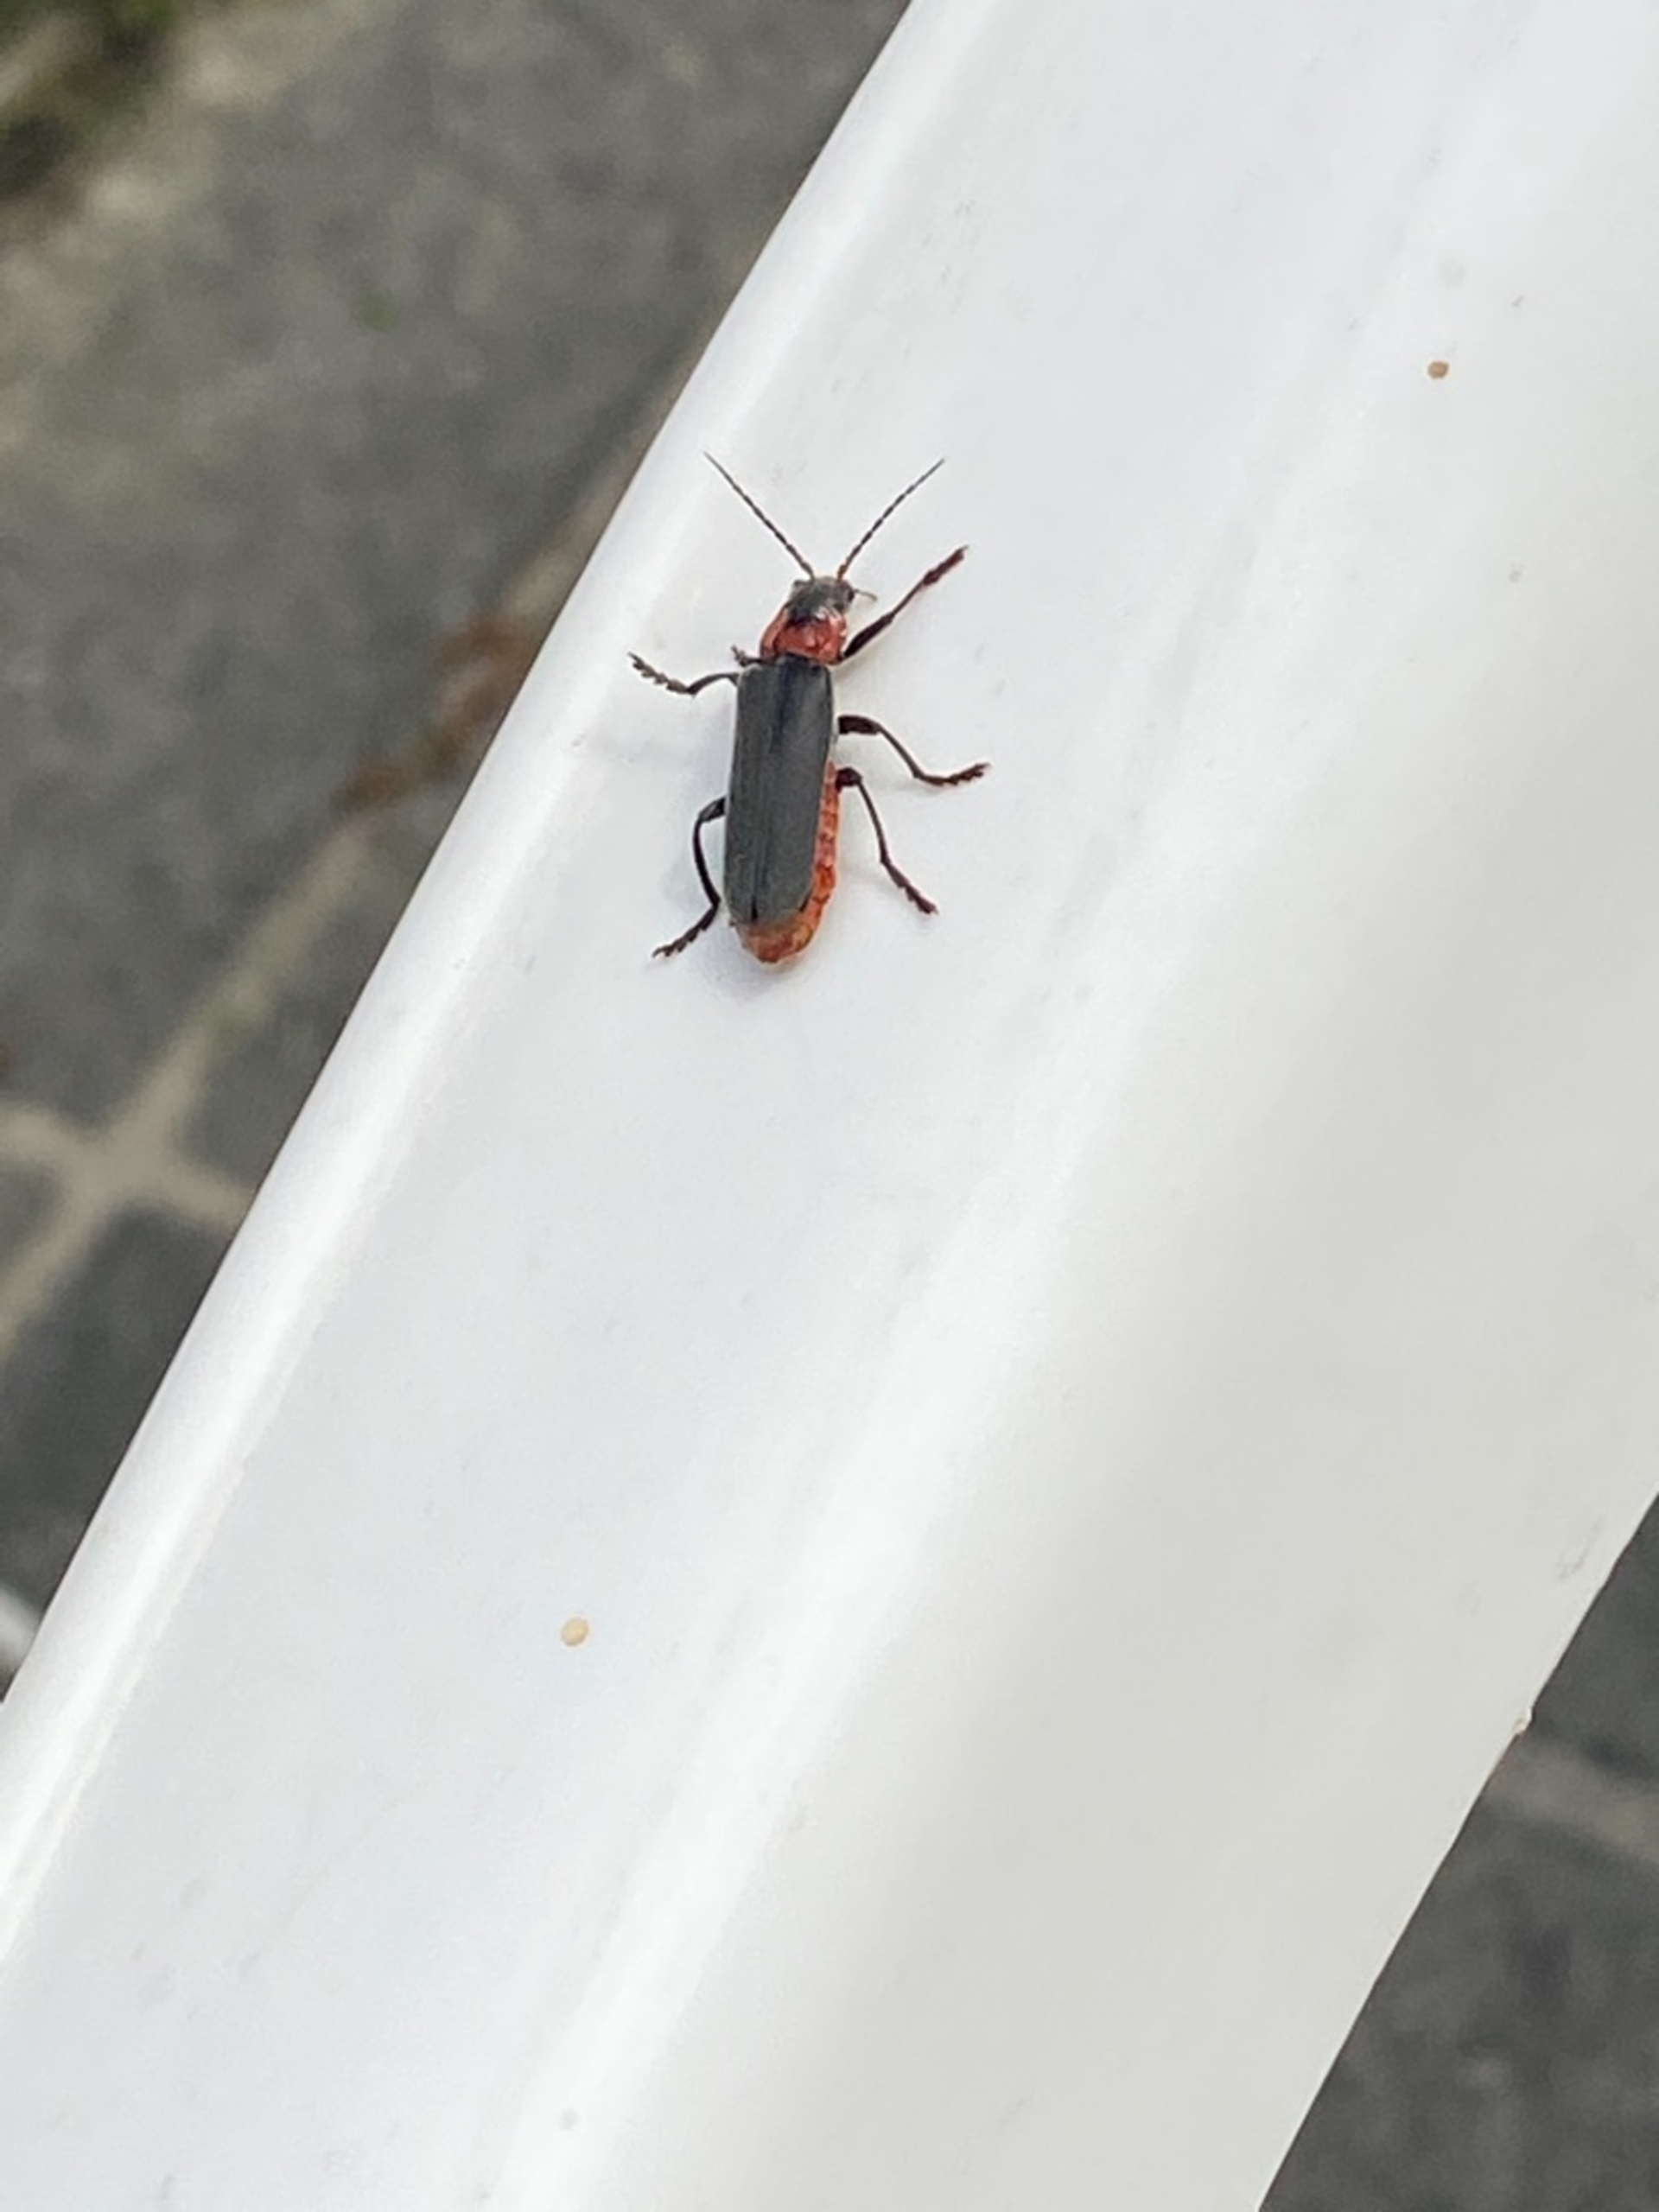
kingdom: Animalia
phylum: Arthropoda
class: Insecta
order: Coleoptera
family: Cantharidae
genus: Cantharis
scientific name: Cantharis fusca
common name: Stor blødvinge
